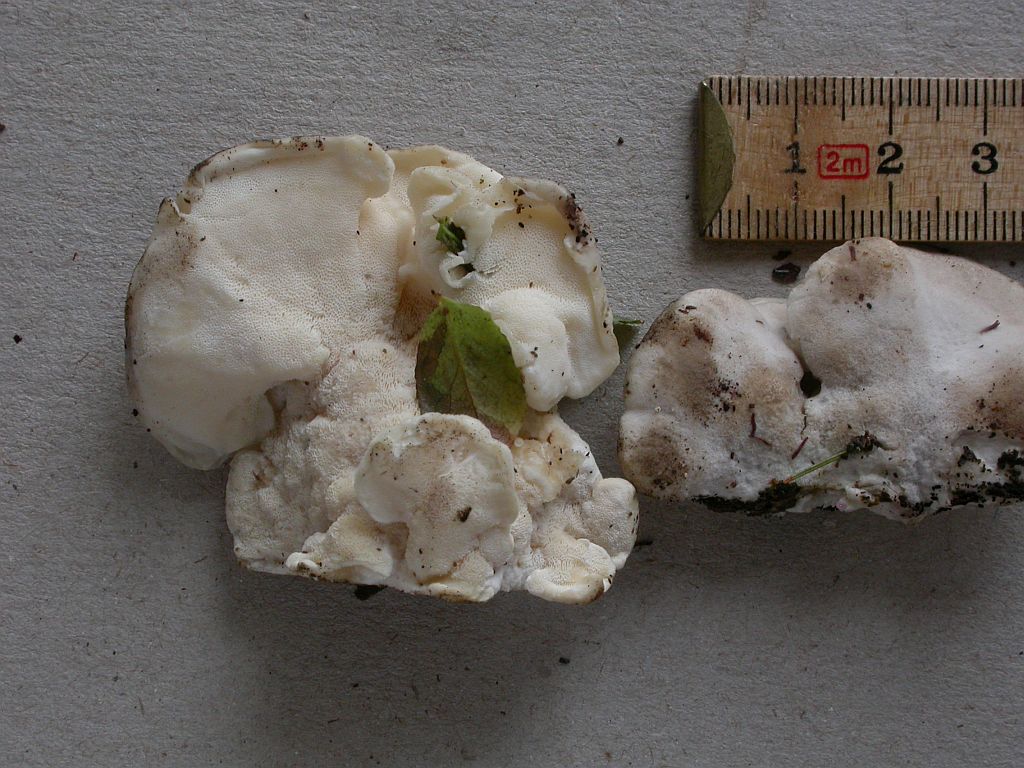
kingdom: Fungi
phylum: Basidiomycota
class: Agaricomycetes
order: Polyporales
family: Incrustoporiaceae
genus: Tyromyces
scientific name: Tyromyces lacteus
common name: mælkehvid kødporesvamp
